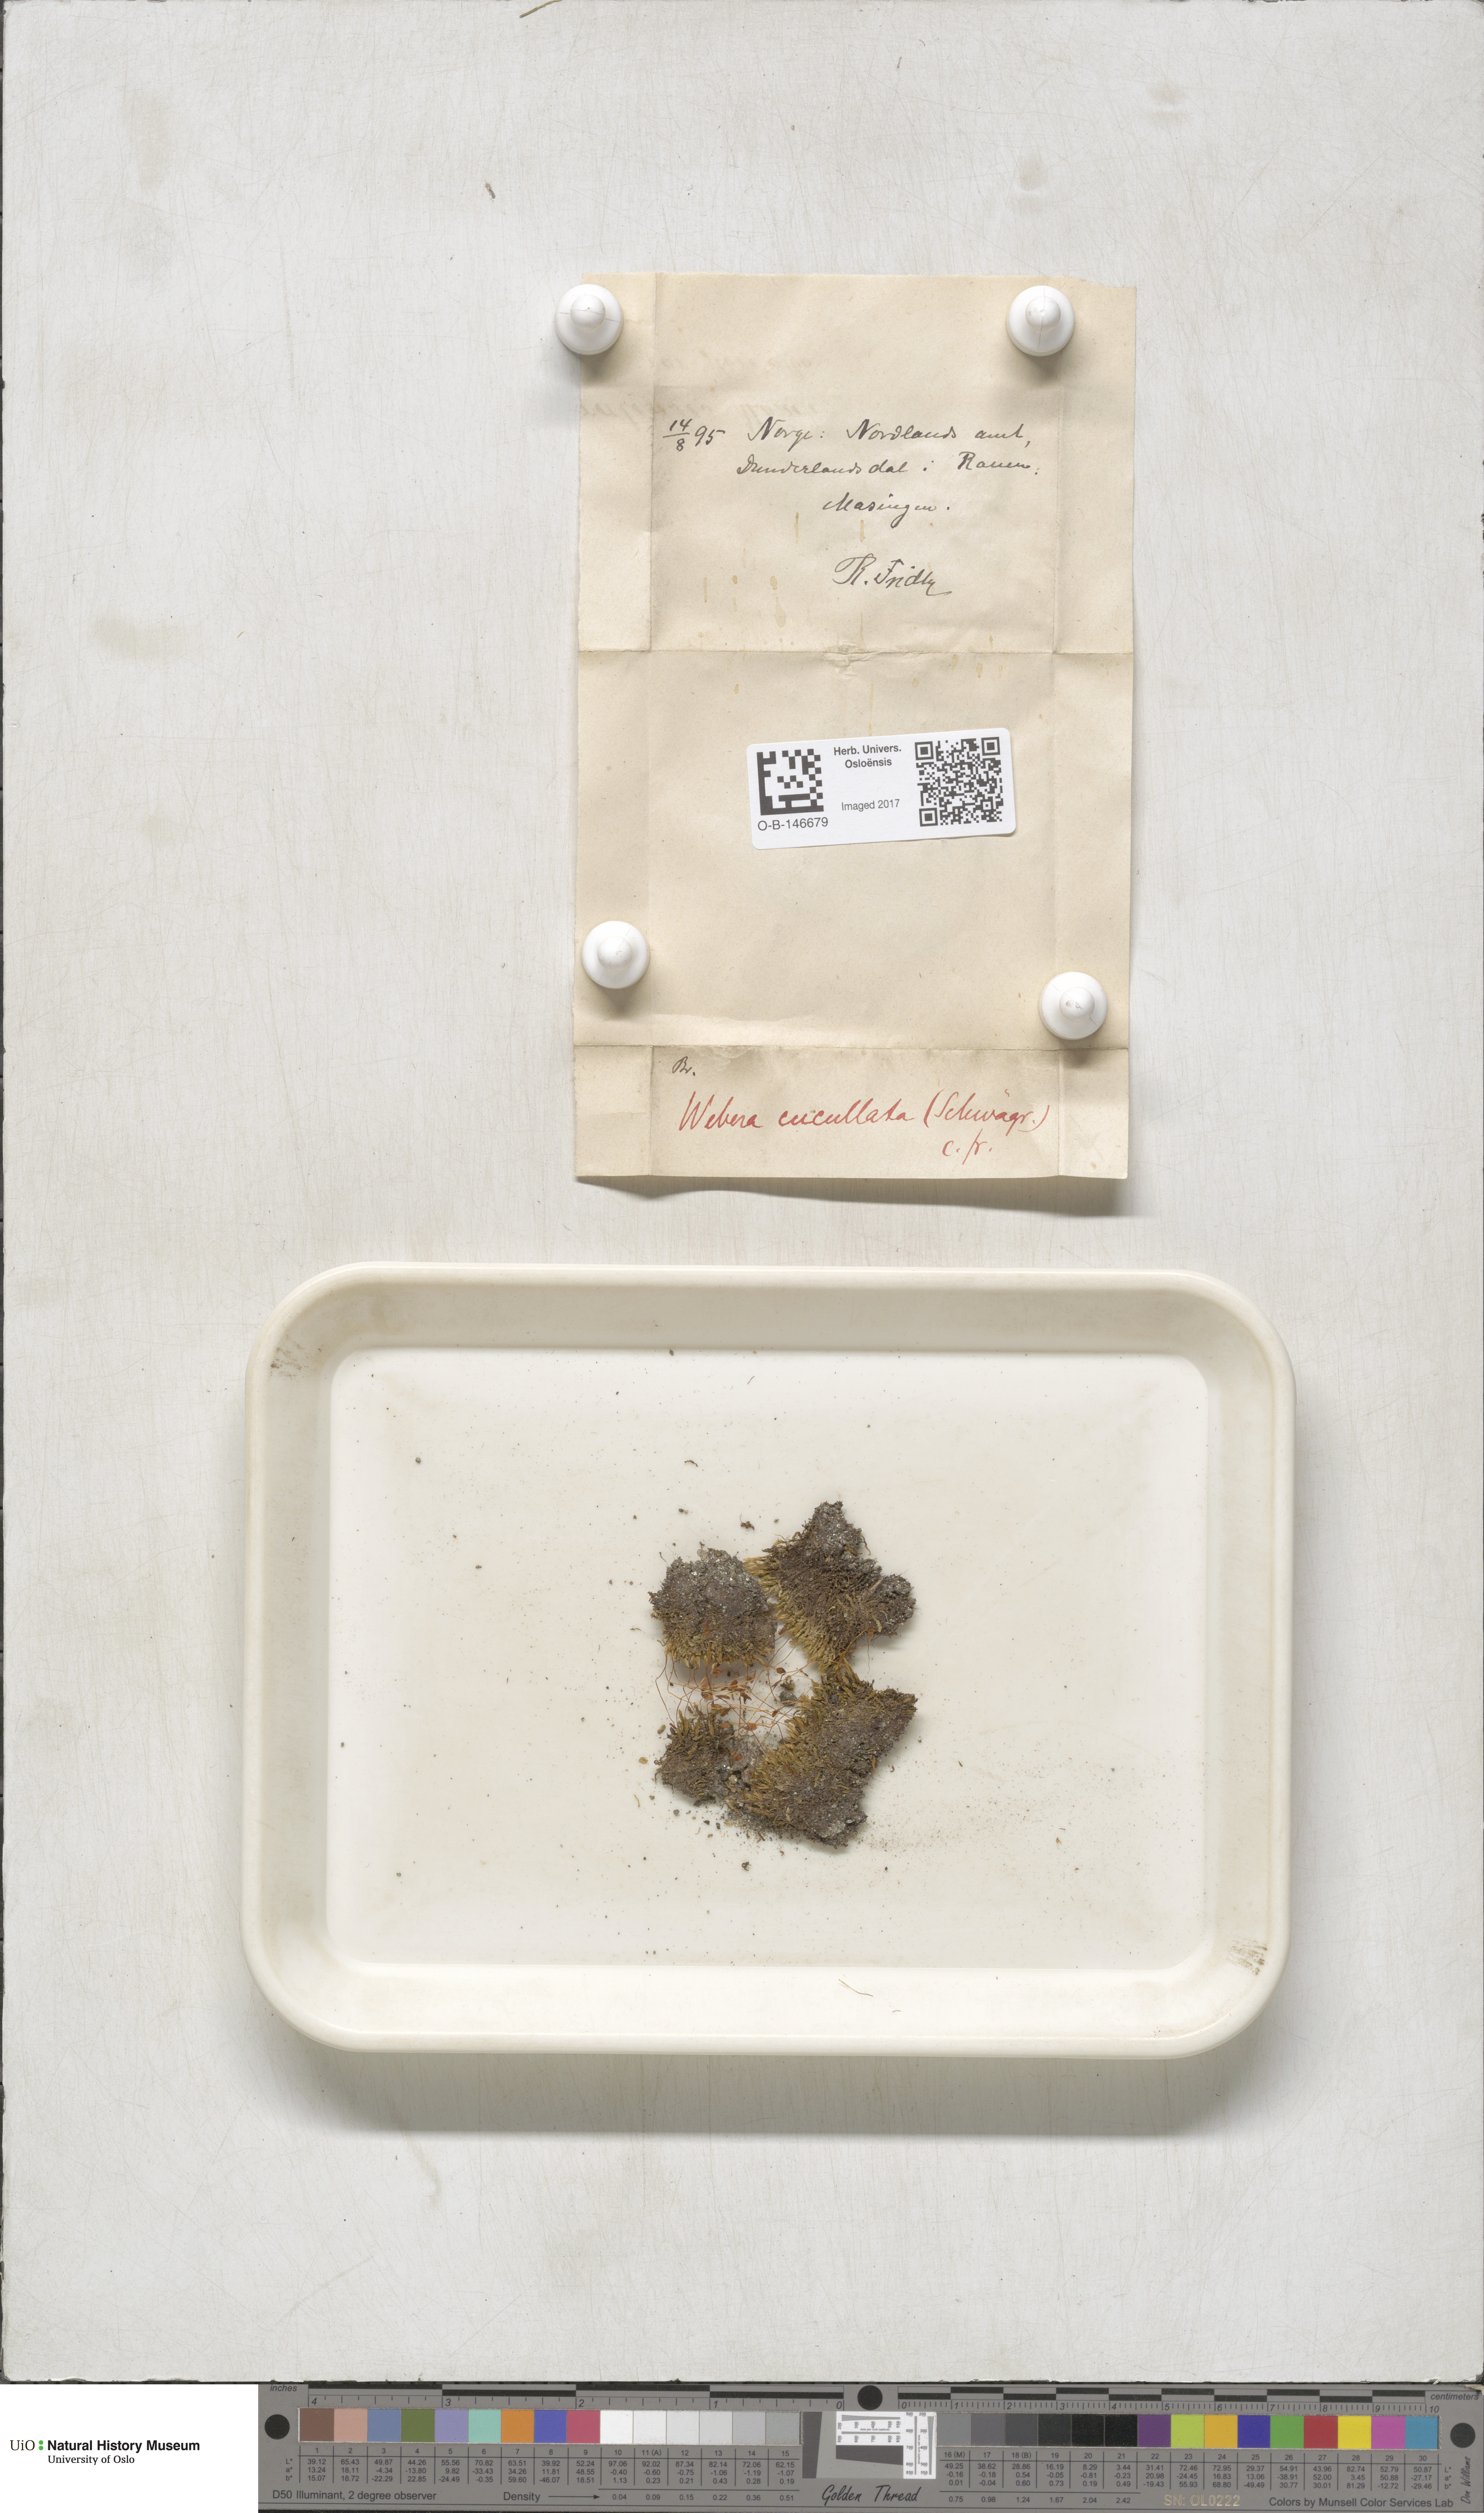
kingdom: Plantae
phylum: Bryophyta
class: Bryopsida
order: Bryales
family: Mniaceae
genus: Pohlia
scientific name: Pohlia obtusifolia
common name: Blunt nodding moss
